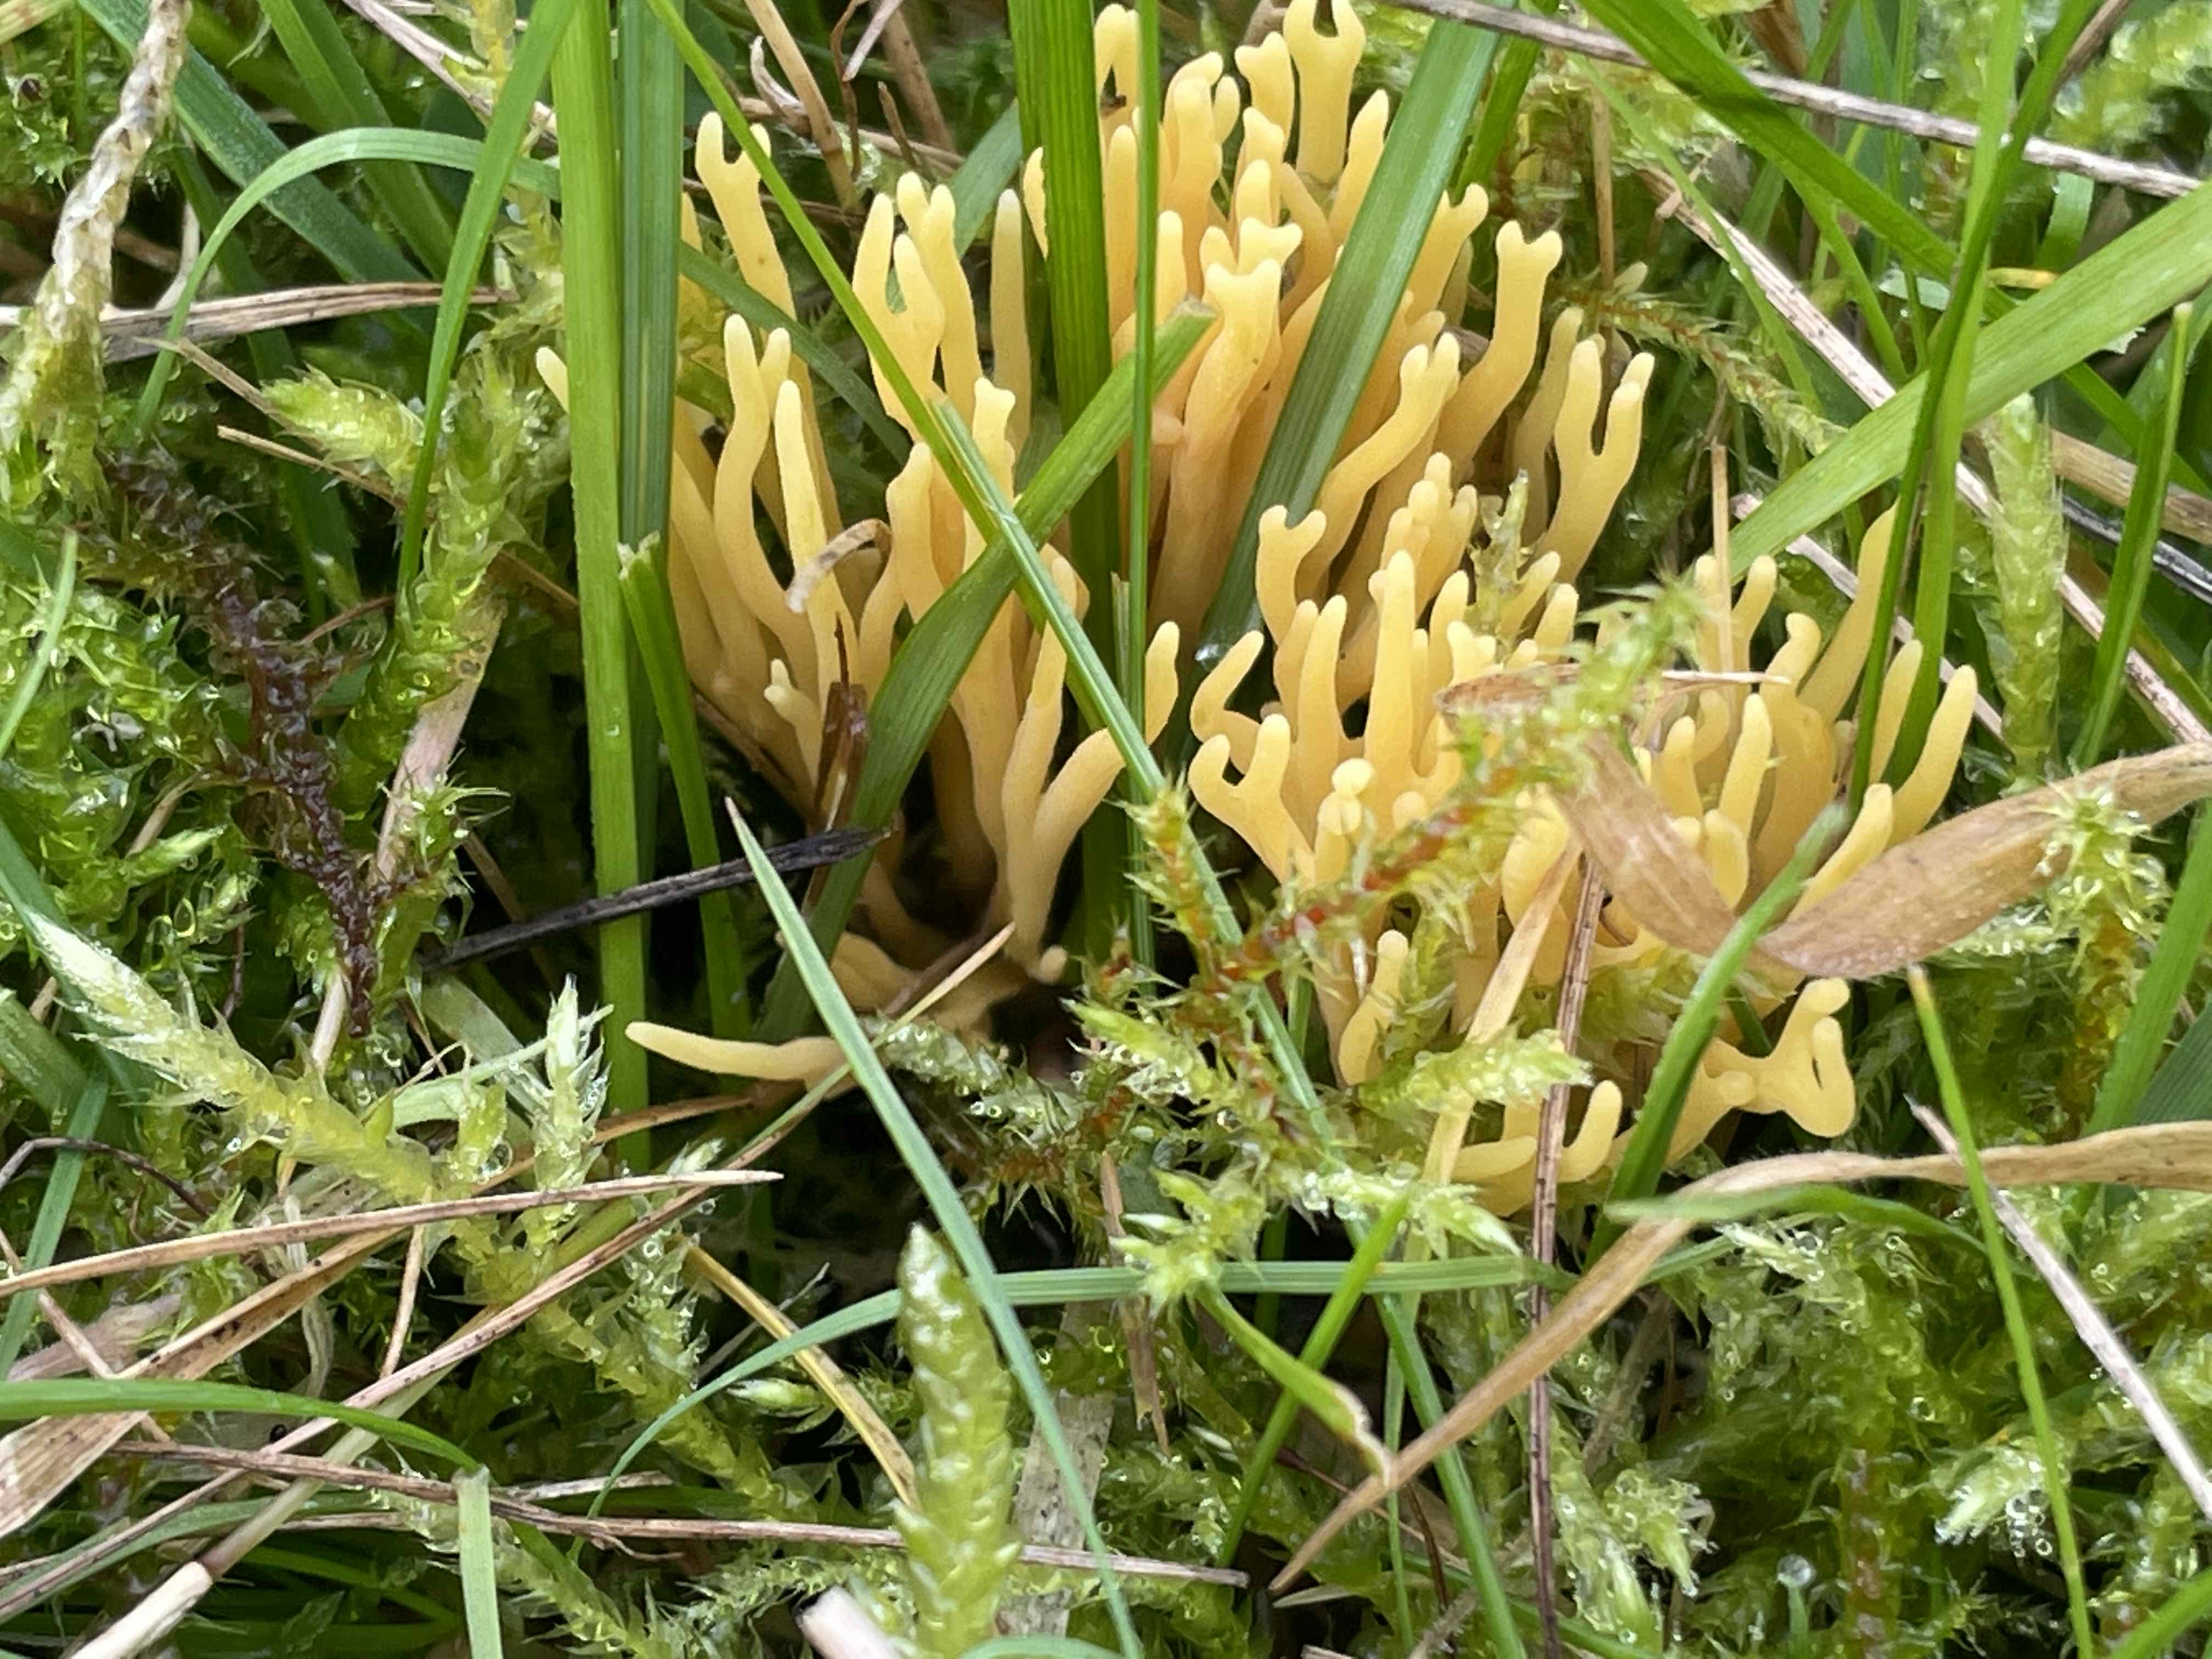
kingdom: Fungi
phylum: Basidiomycota
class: Agaricomycetes
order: Agaricales
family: Clavariaceae
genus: Clavulinopsis
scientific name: Clavulinopsis corniculata
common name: eng-køllesvamp
